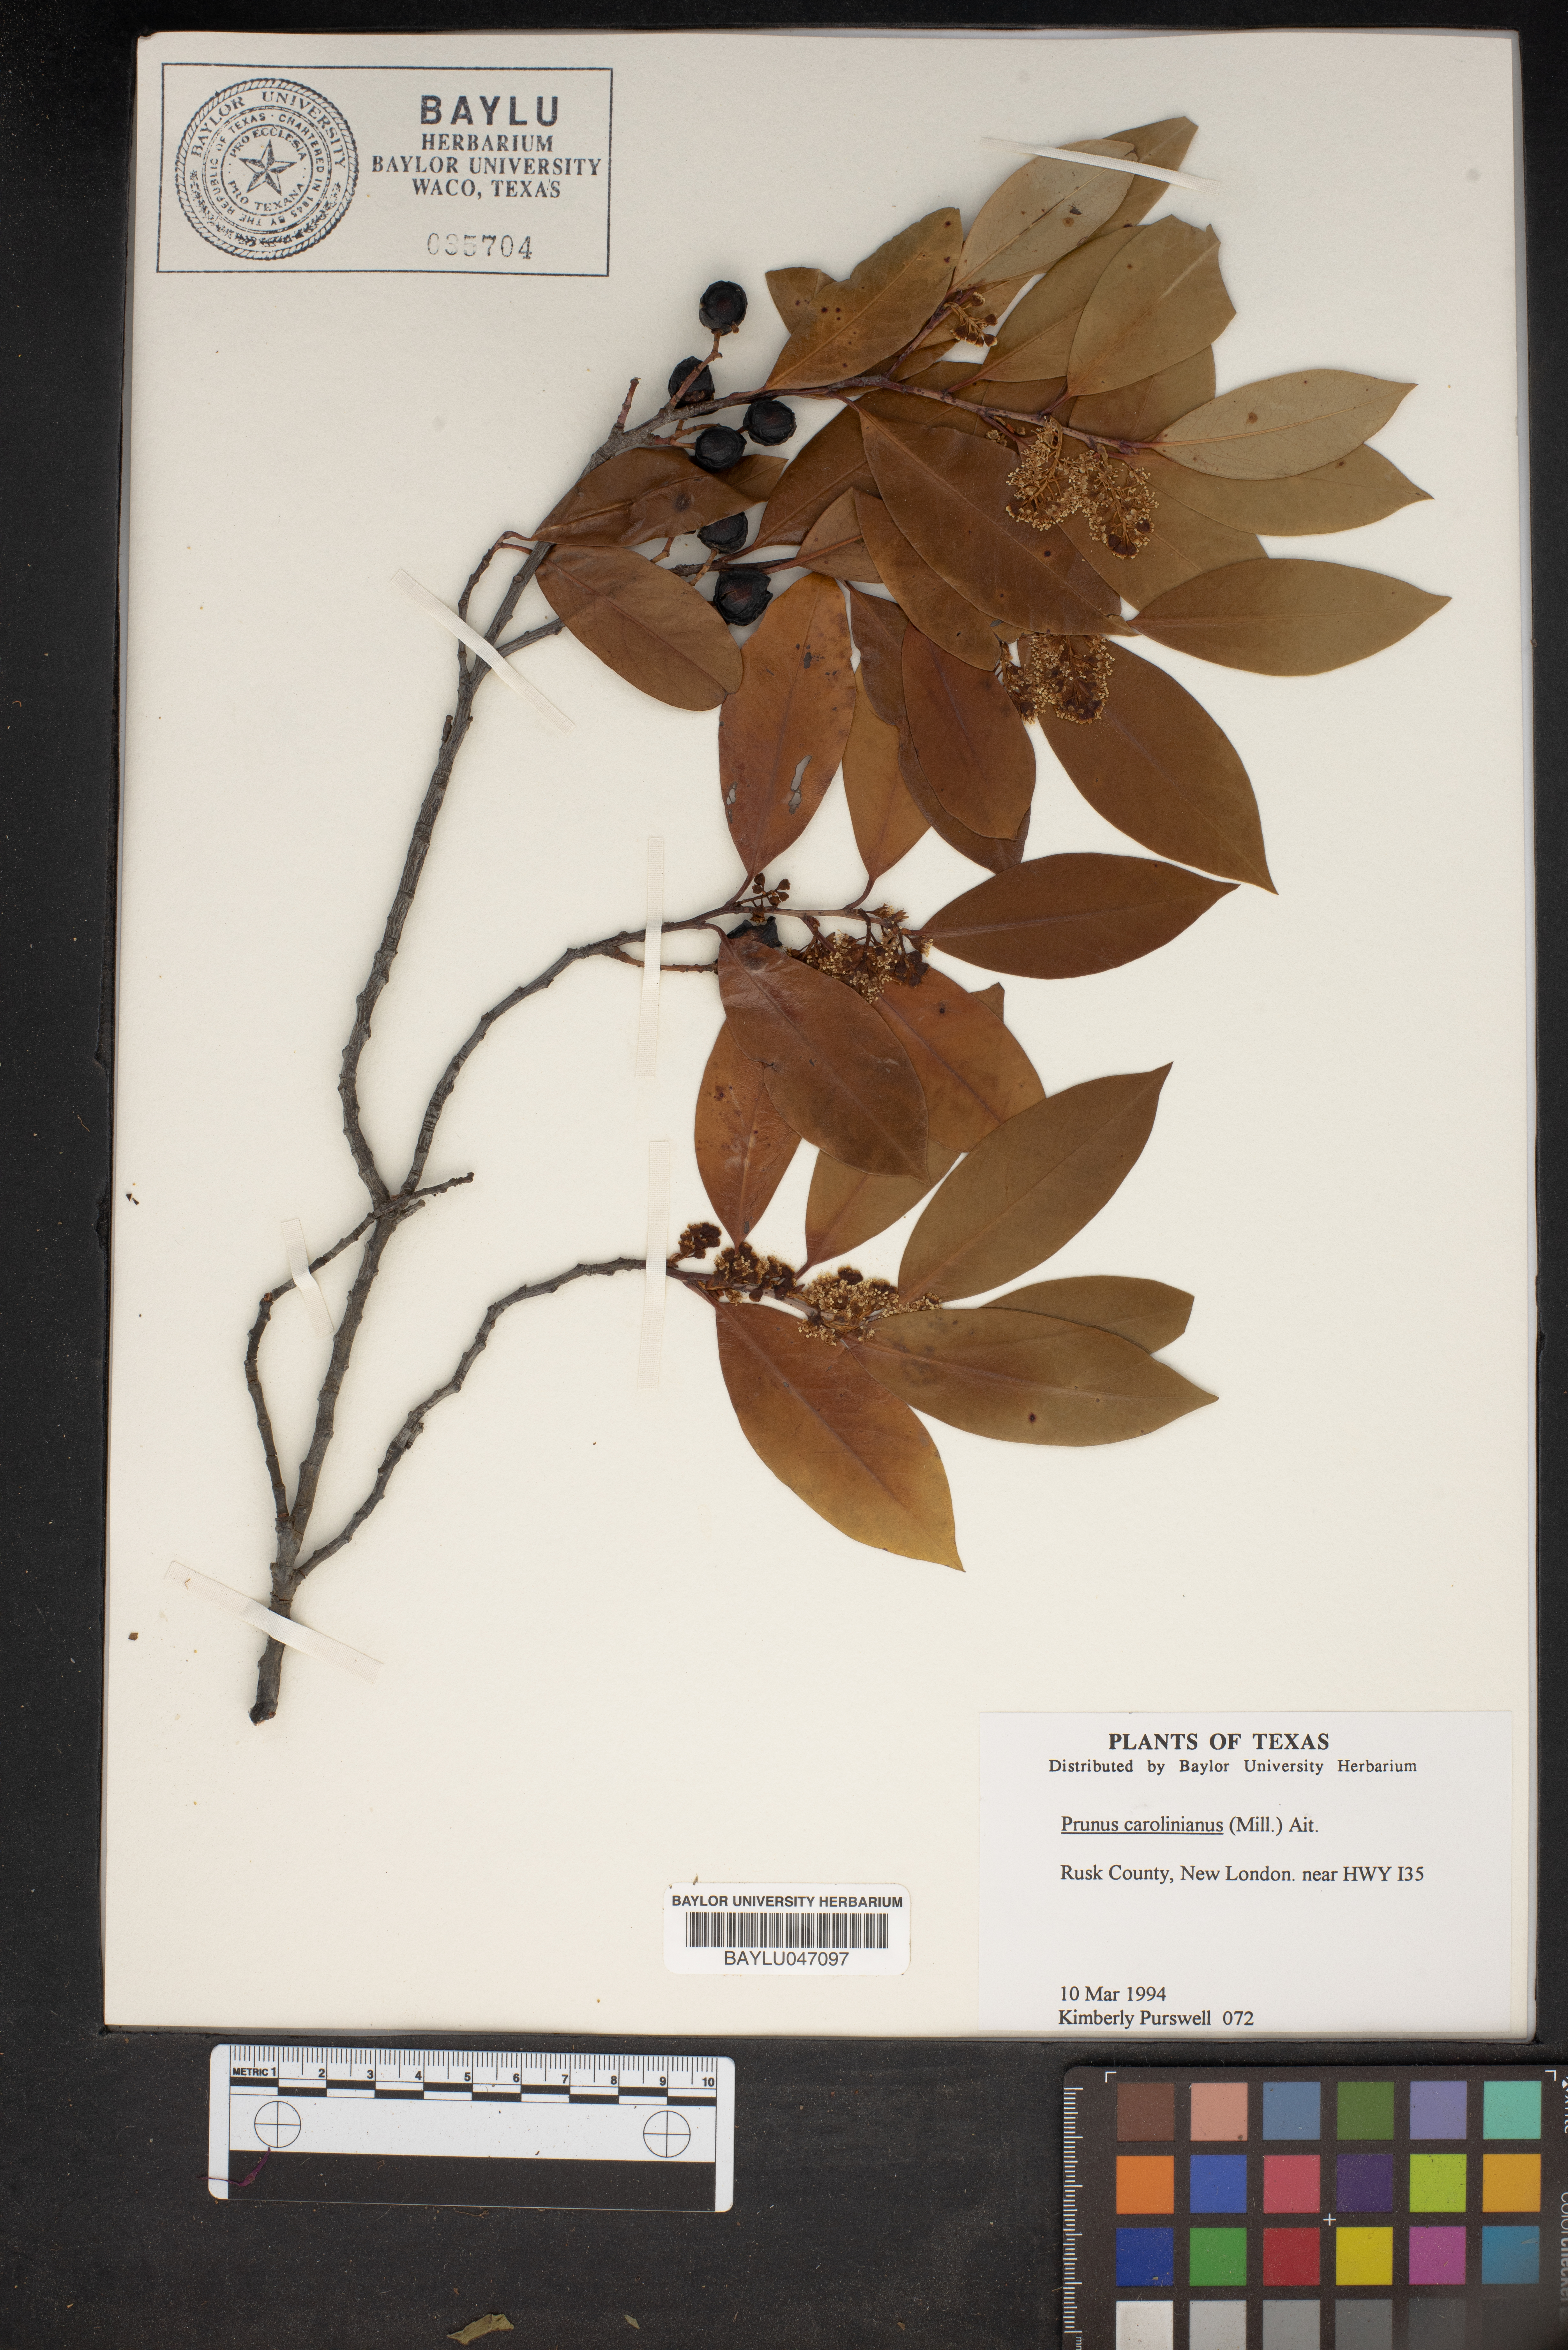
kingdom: Plantae
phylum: Tracheophyta
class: Magnoliopsida
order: Rosales
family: Rosaceae
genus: Prunus
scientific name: Prunus caroliniana
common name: Carolina laurel cherry
